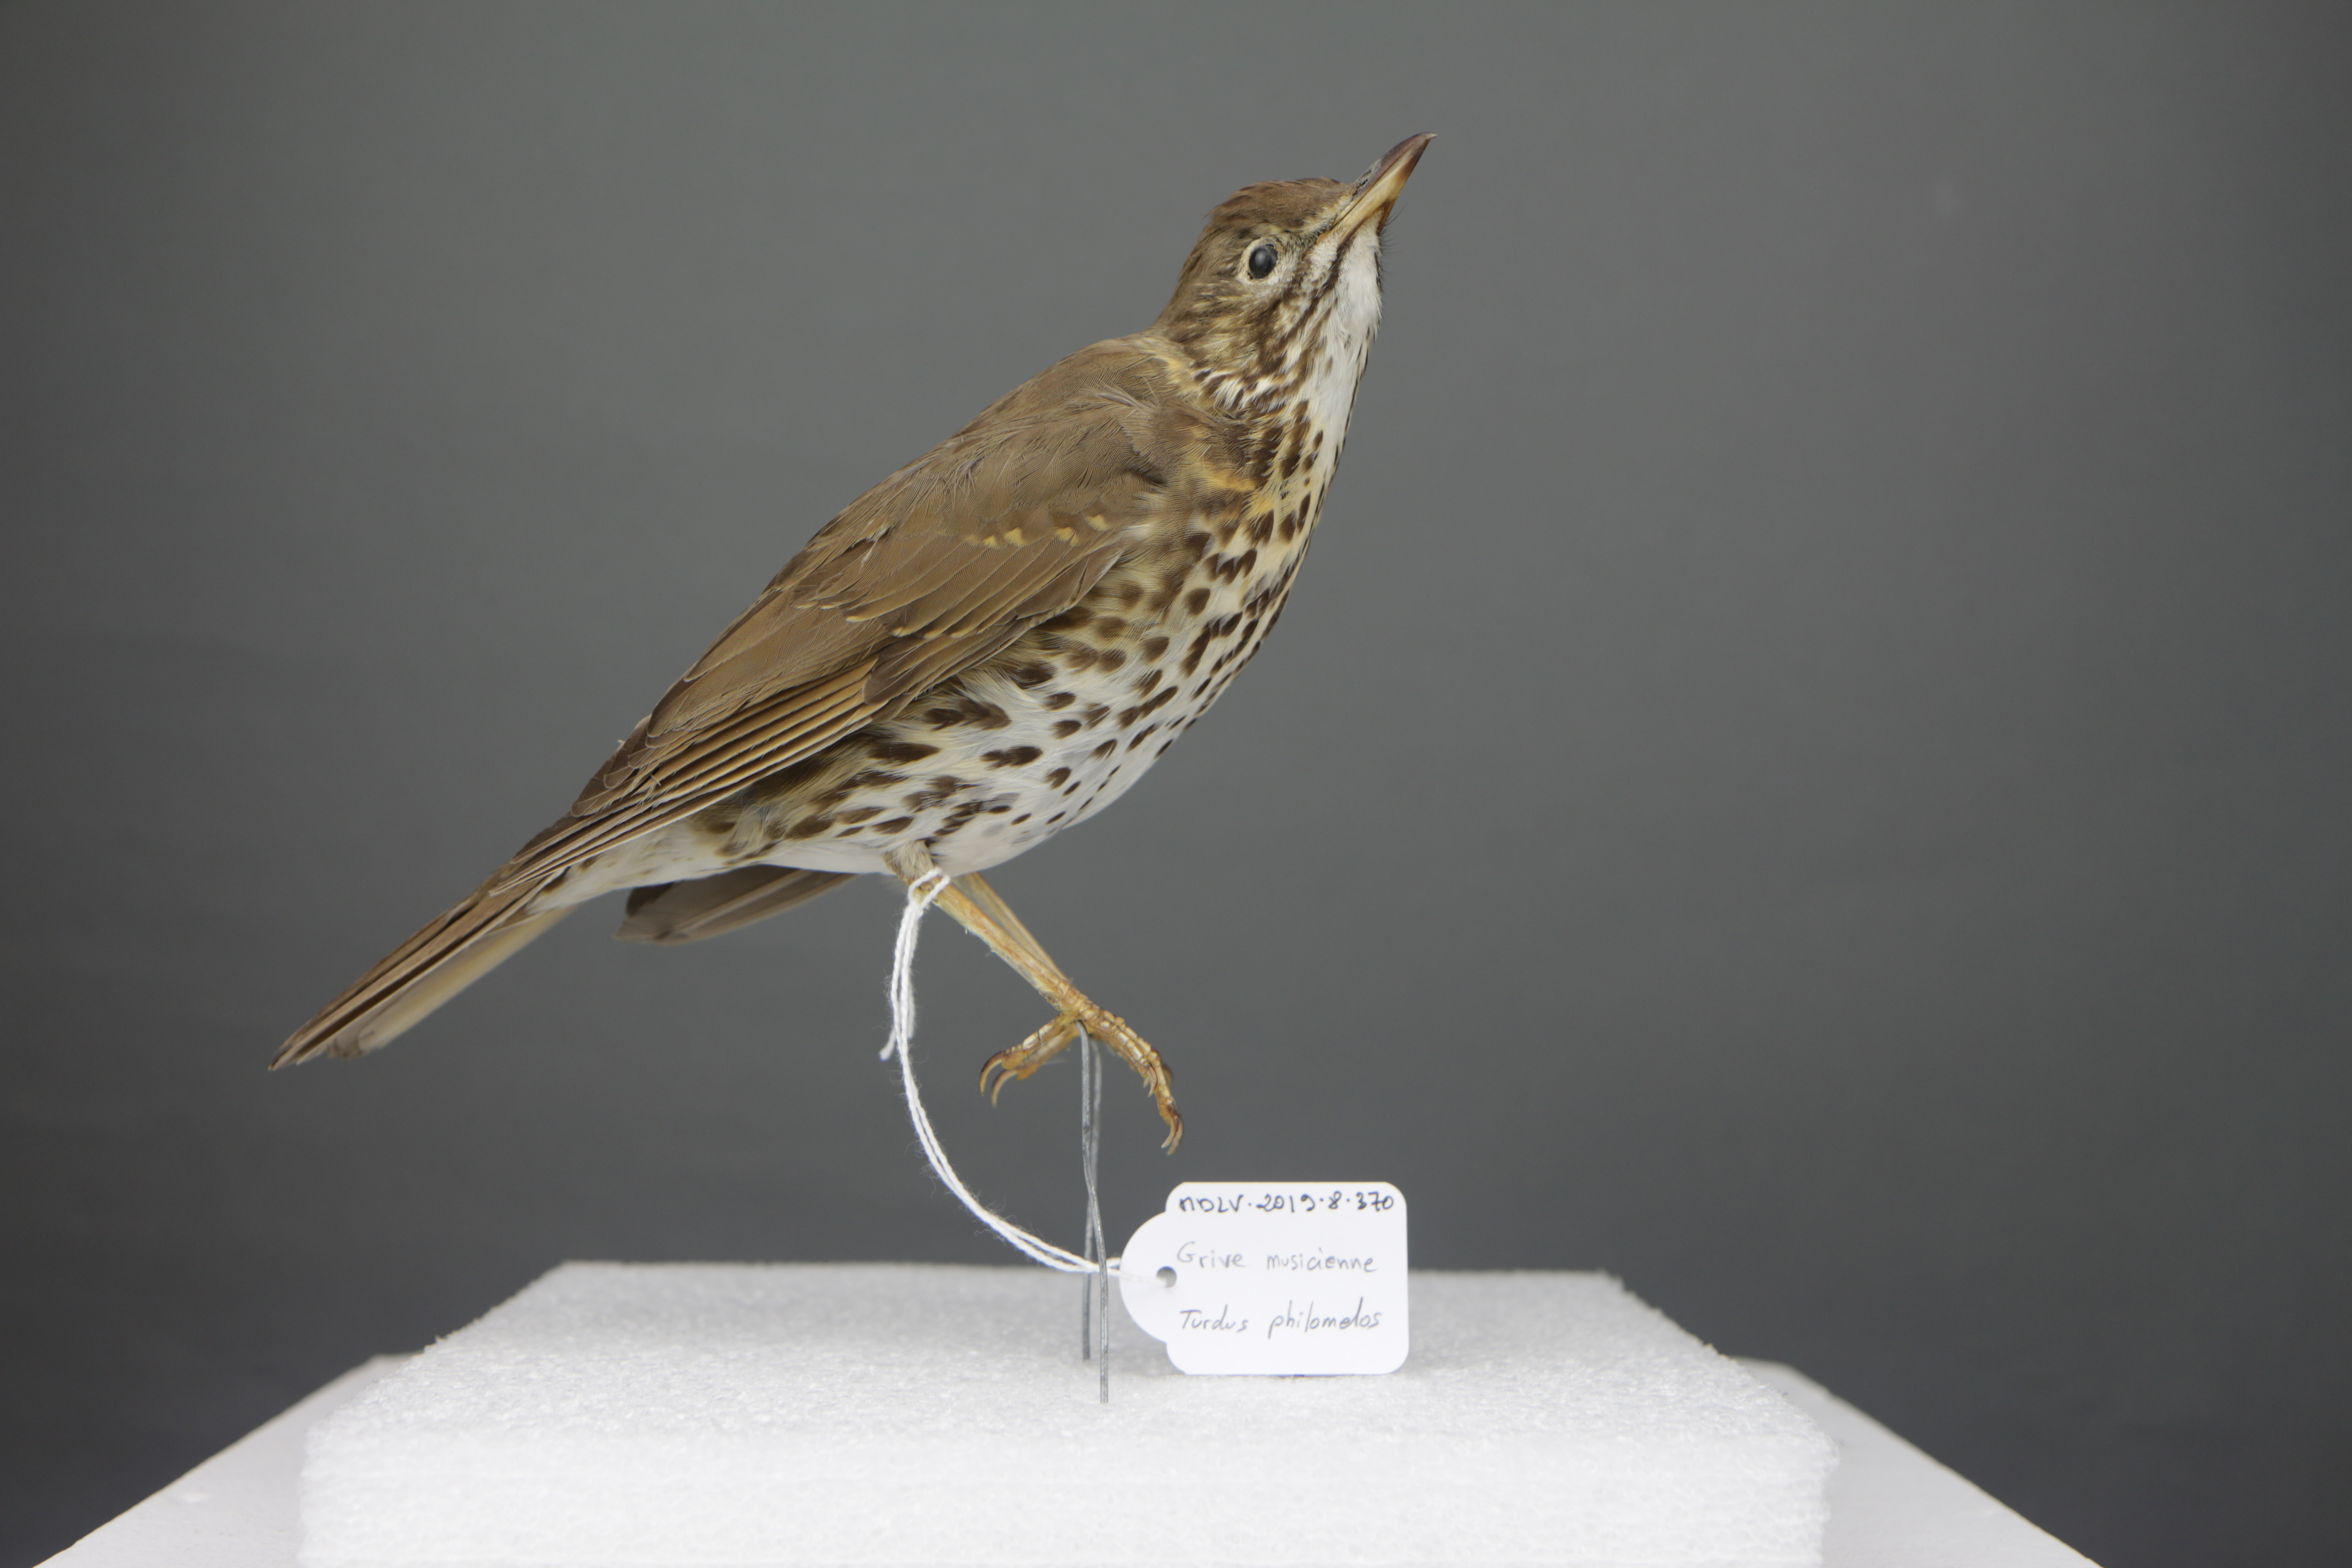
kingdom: Animalia
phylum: Chordata
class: Aves
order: Passeriformes
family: Turdidae
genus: Turdus
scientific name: Turdus philomelos
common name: Song thrush
